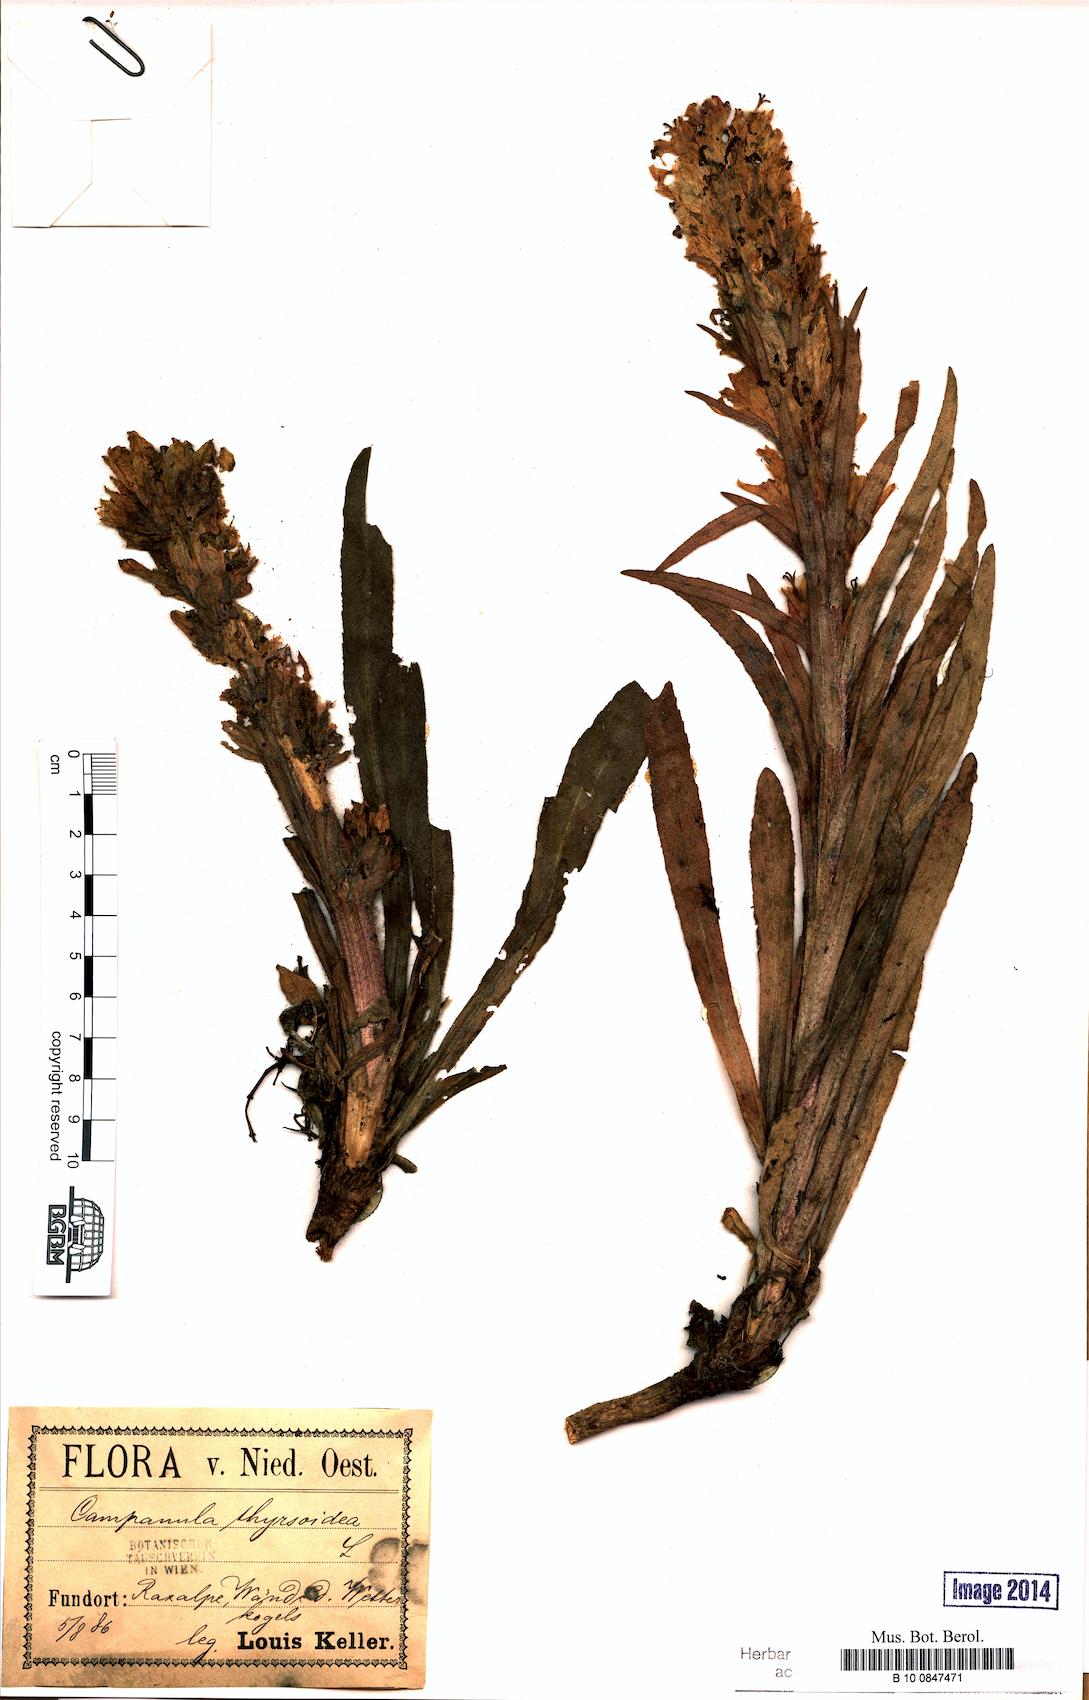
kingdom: Plantae
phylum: Tracheophyta
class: Magnoliopsida
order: Asterales
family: Campanulaceae
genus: Campanula
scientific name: Campanula thyrsoides
